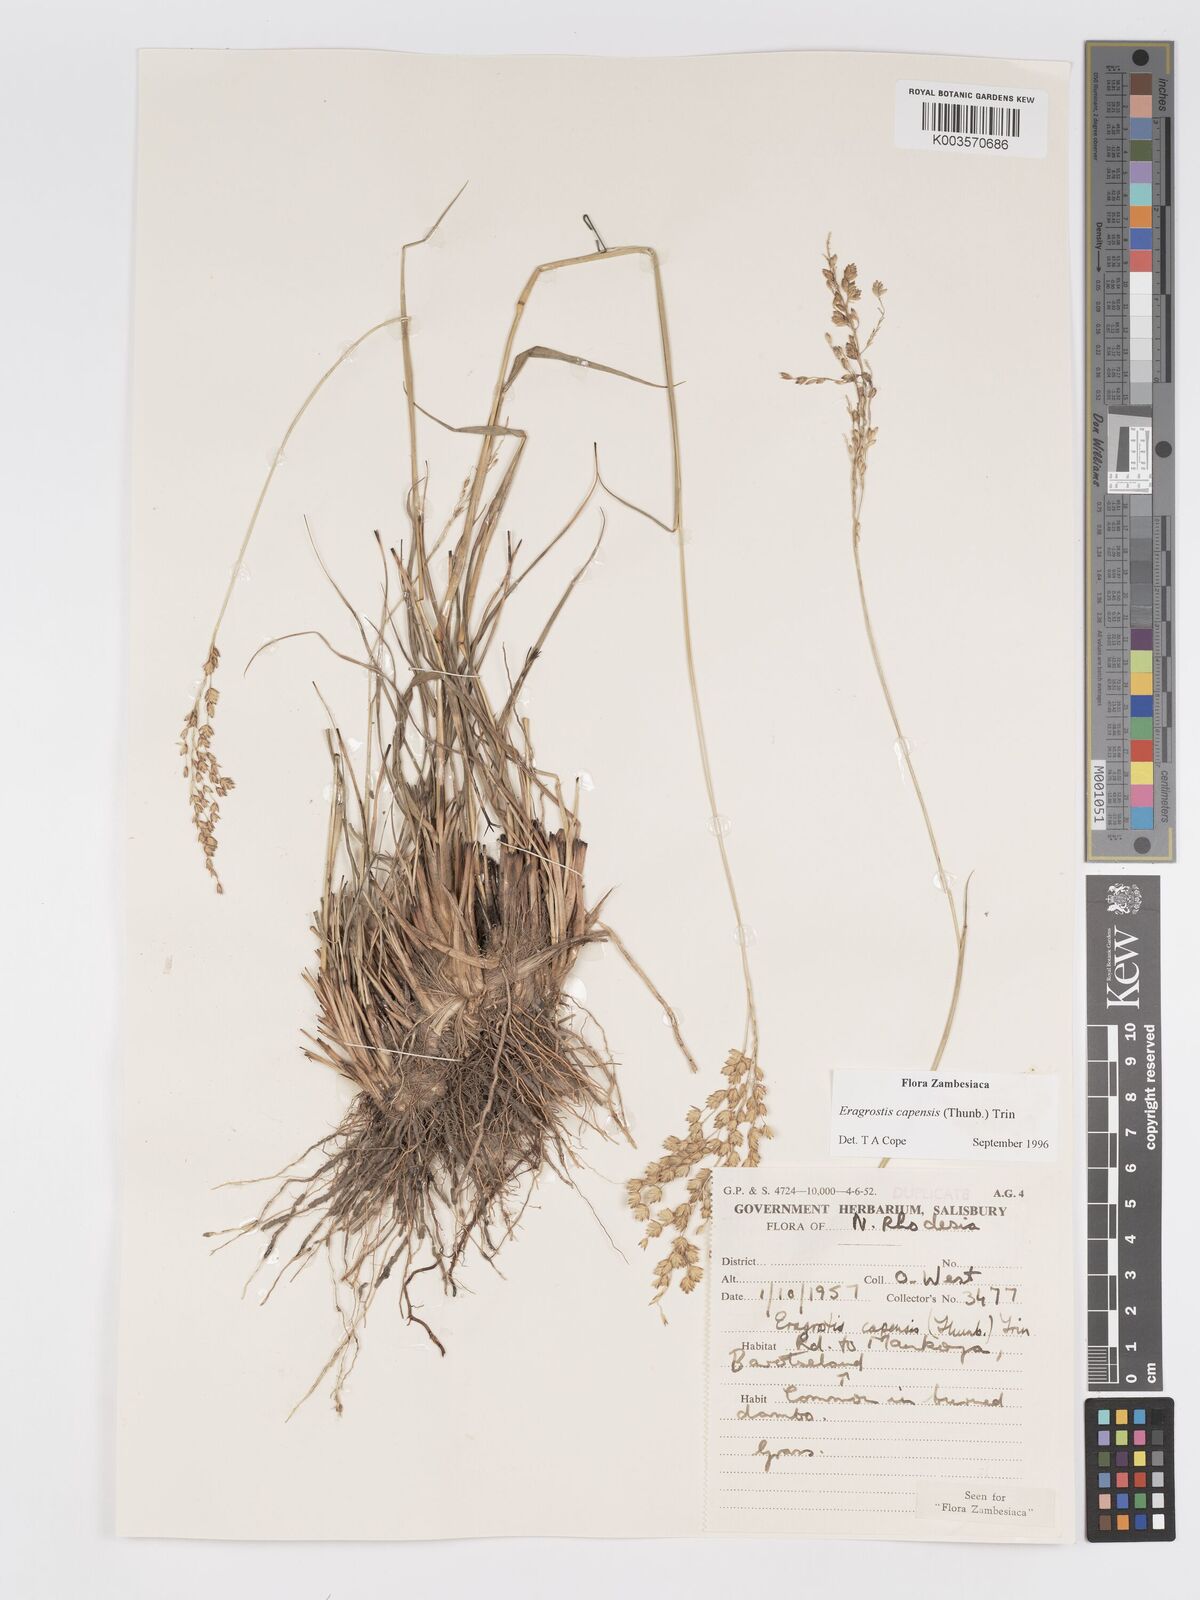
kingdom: Plantae
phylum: Tracheophyta
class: Liliopsida
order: Poales
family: Poaceae
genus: Eragrostis
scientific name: Eragrostis capensis
